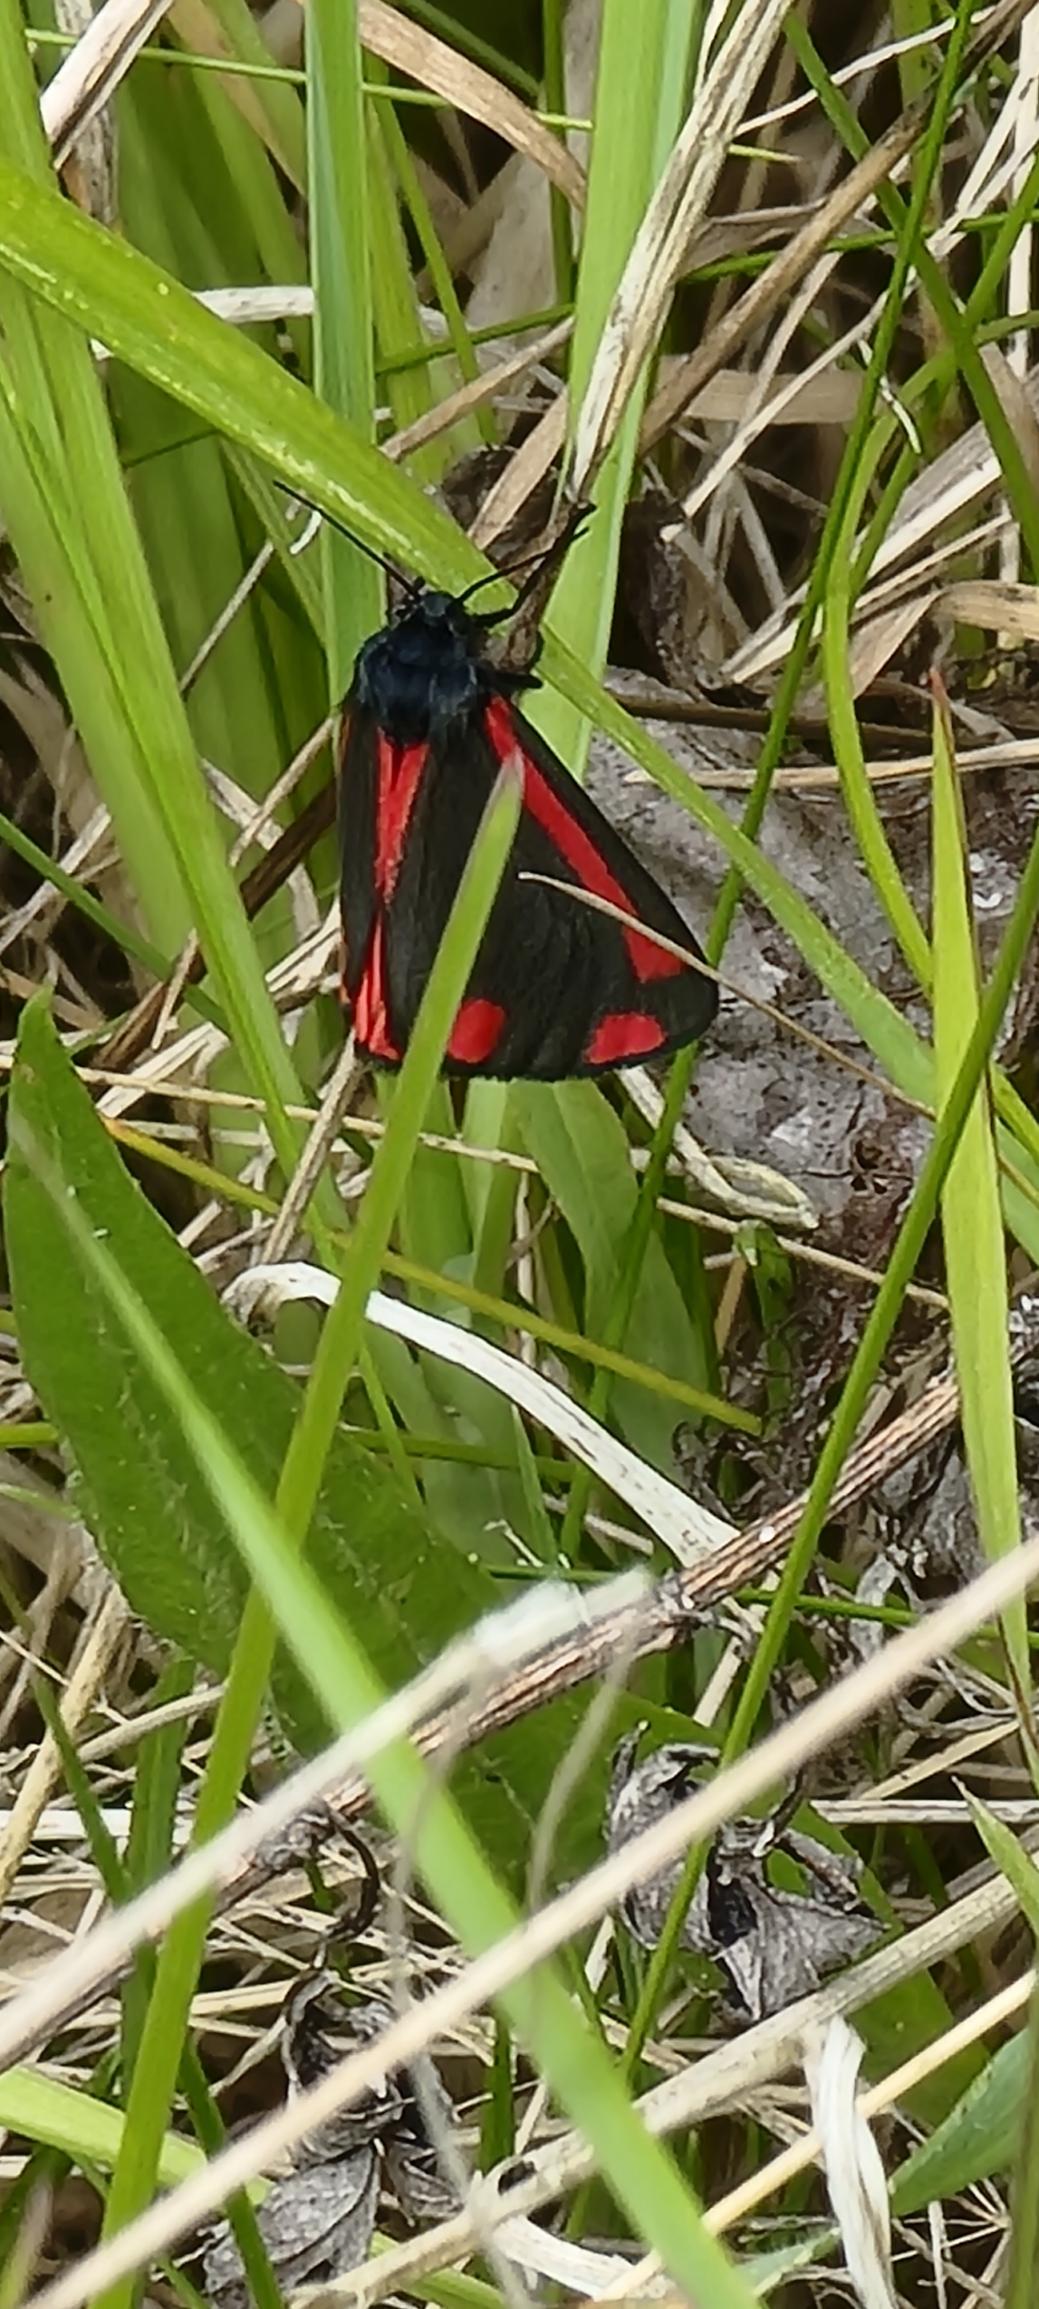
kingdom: Animalia
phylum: Arthropoda
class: Insecta
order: Lepidoptera
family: Erebidae
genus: Tyria
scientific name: Tyria jacobaeae
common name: Blodplet
